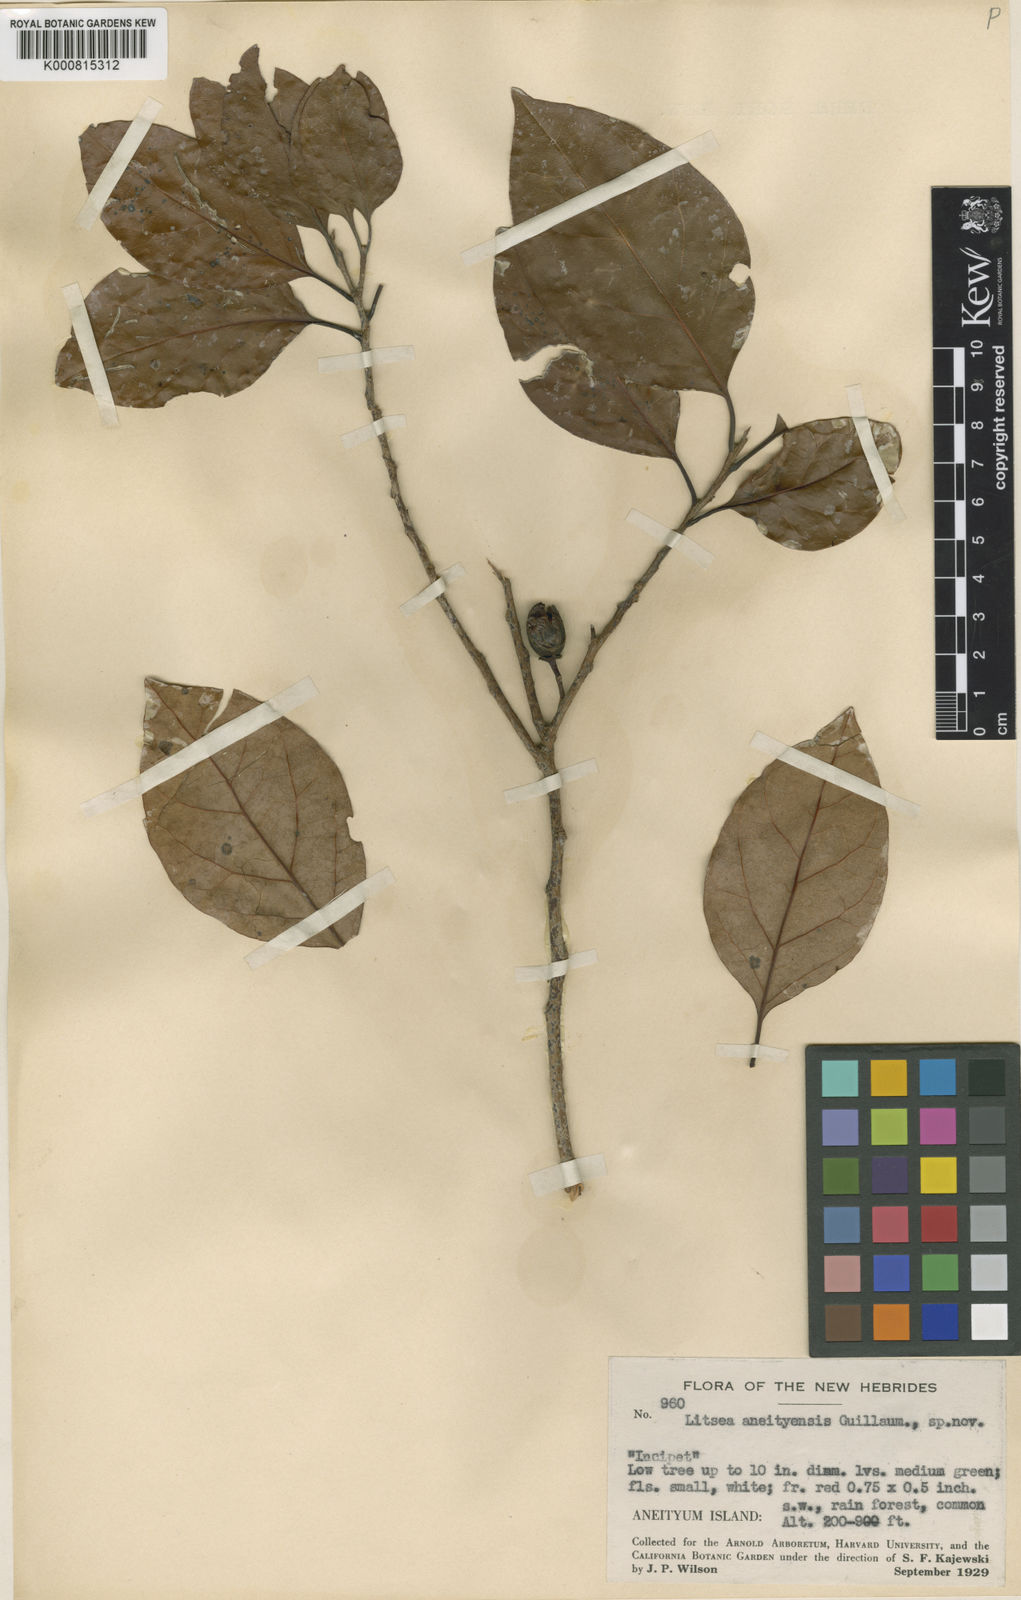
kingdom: Plantae
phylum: Tracheophyta
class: Magnoliopsida
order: Laurales
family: Lauraceae
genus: Litsea
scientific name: Litsea aneityensis
